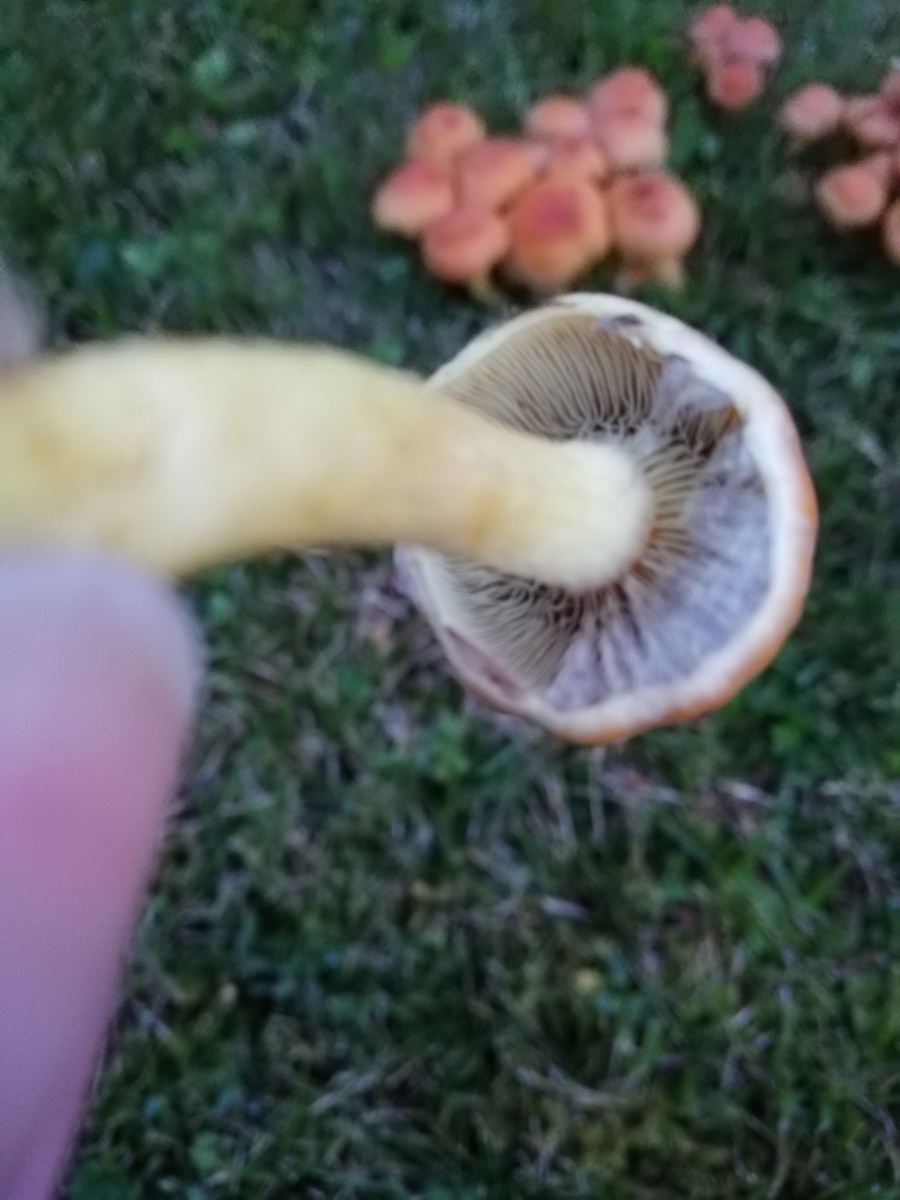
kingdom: Fungi
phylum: Basidiomycota
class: Agaricomycetes
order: Agaricales
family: Strophariaceae
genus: Hypholoma
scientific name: Hypholoma lateritium
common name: teglrød svovlhat
